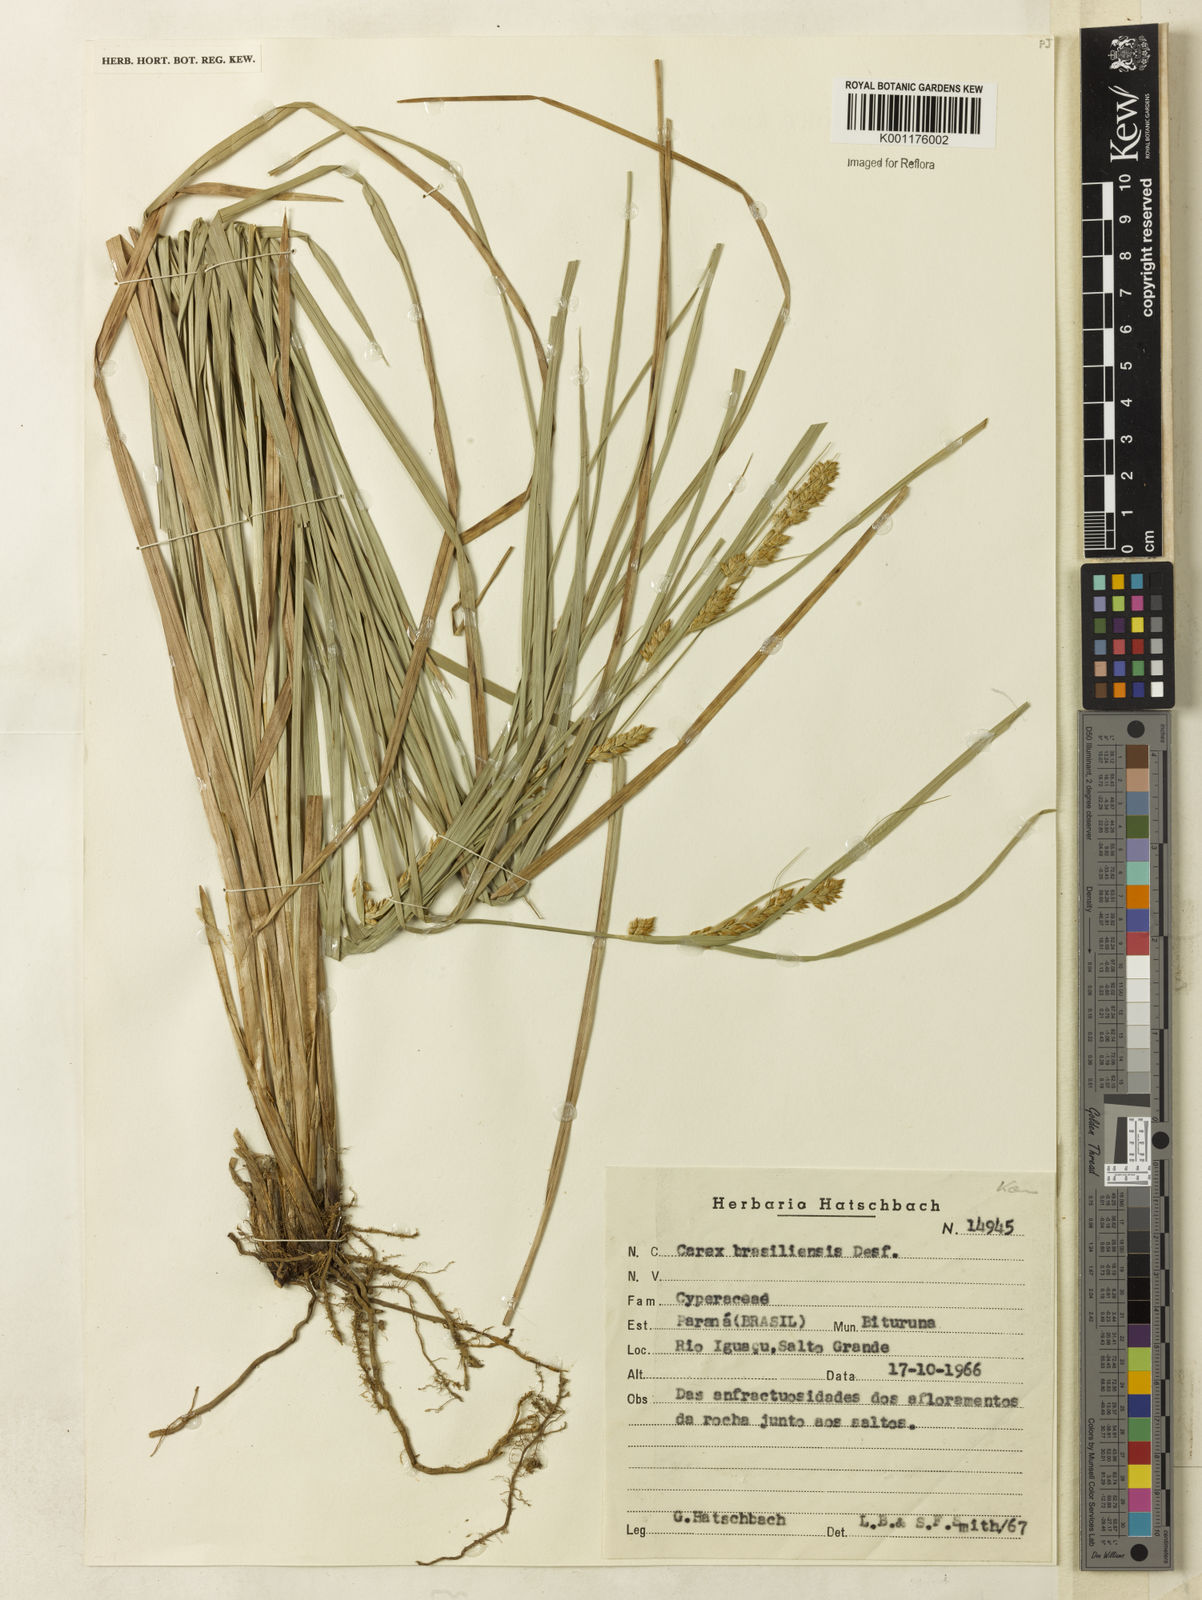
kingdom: Plantae
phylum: Tracheophyta
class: Liliopsida
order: Poales
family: Cyperaceae
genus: Carex
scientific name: Carex feddeana
